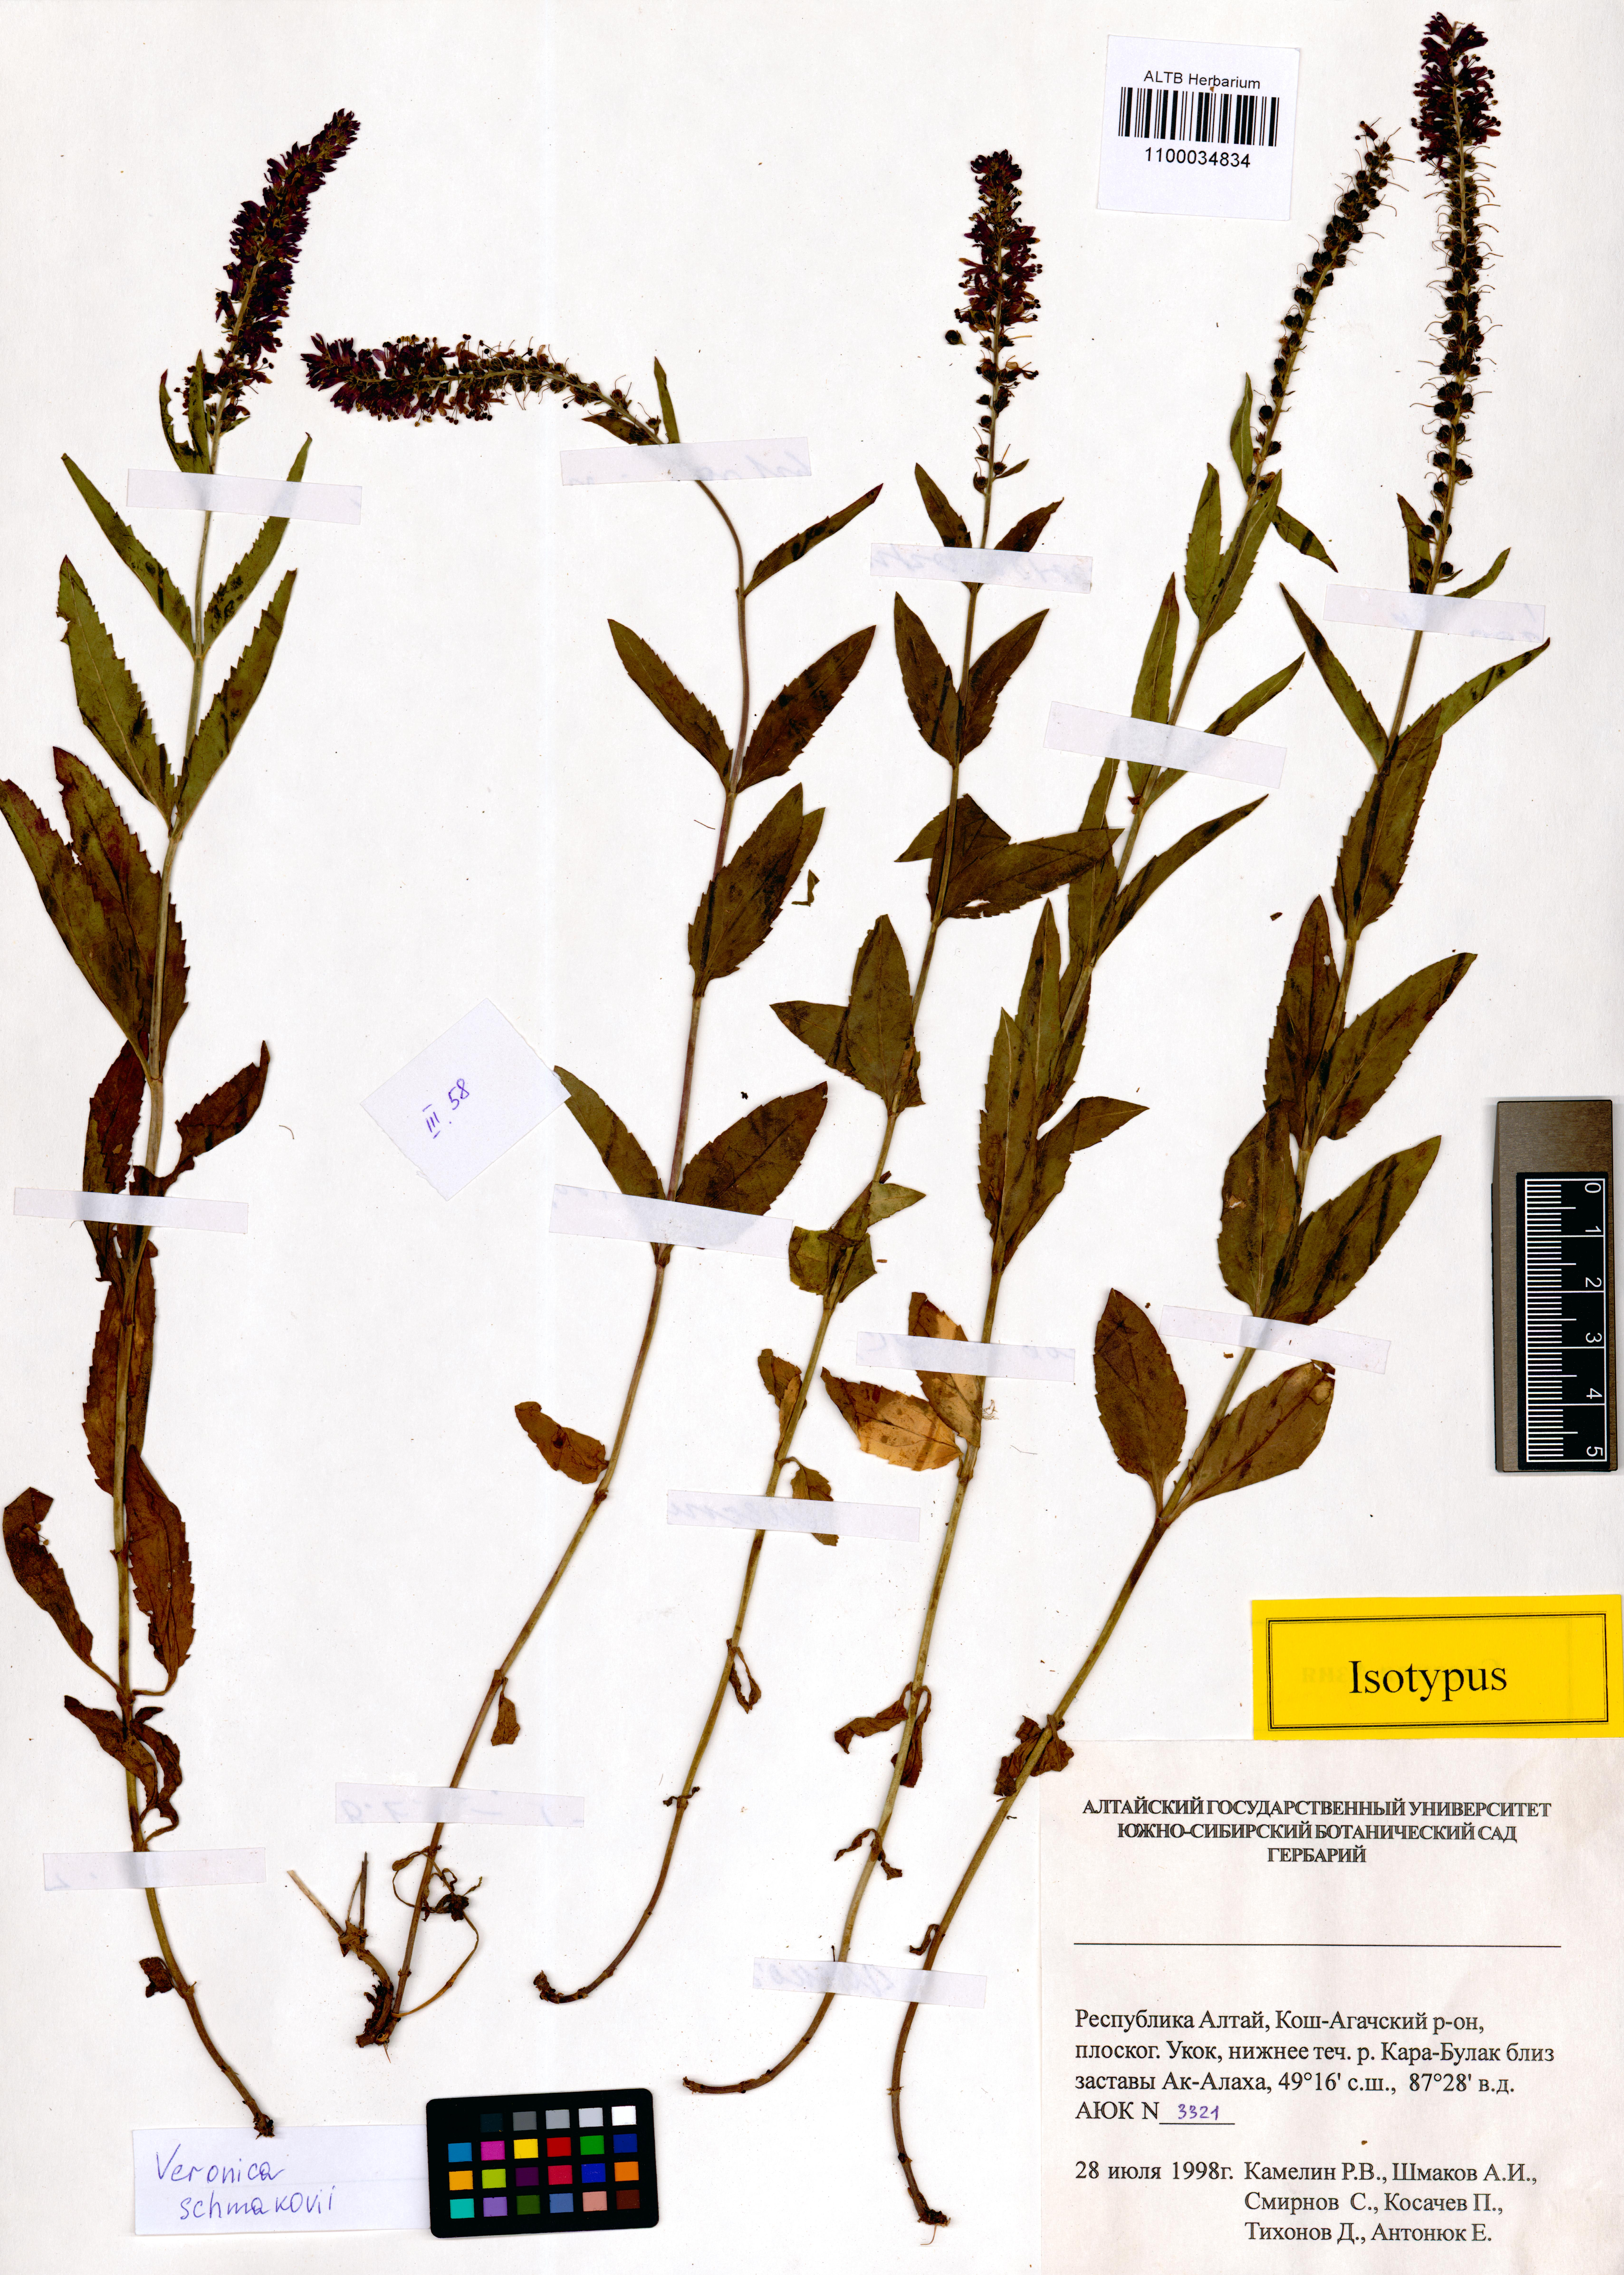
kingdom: Plantae
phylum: Tracheophyta
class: Magnoliopsida
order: Lamiales
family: Plantaginaceae
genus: Veronica
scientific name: Veronica schmakovii
